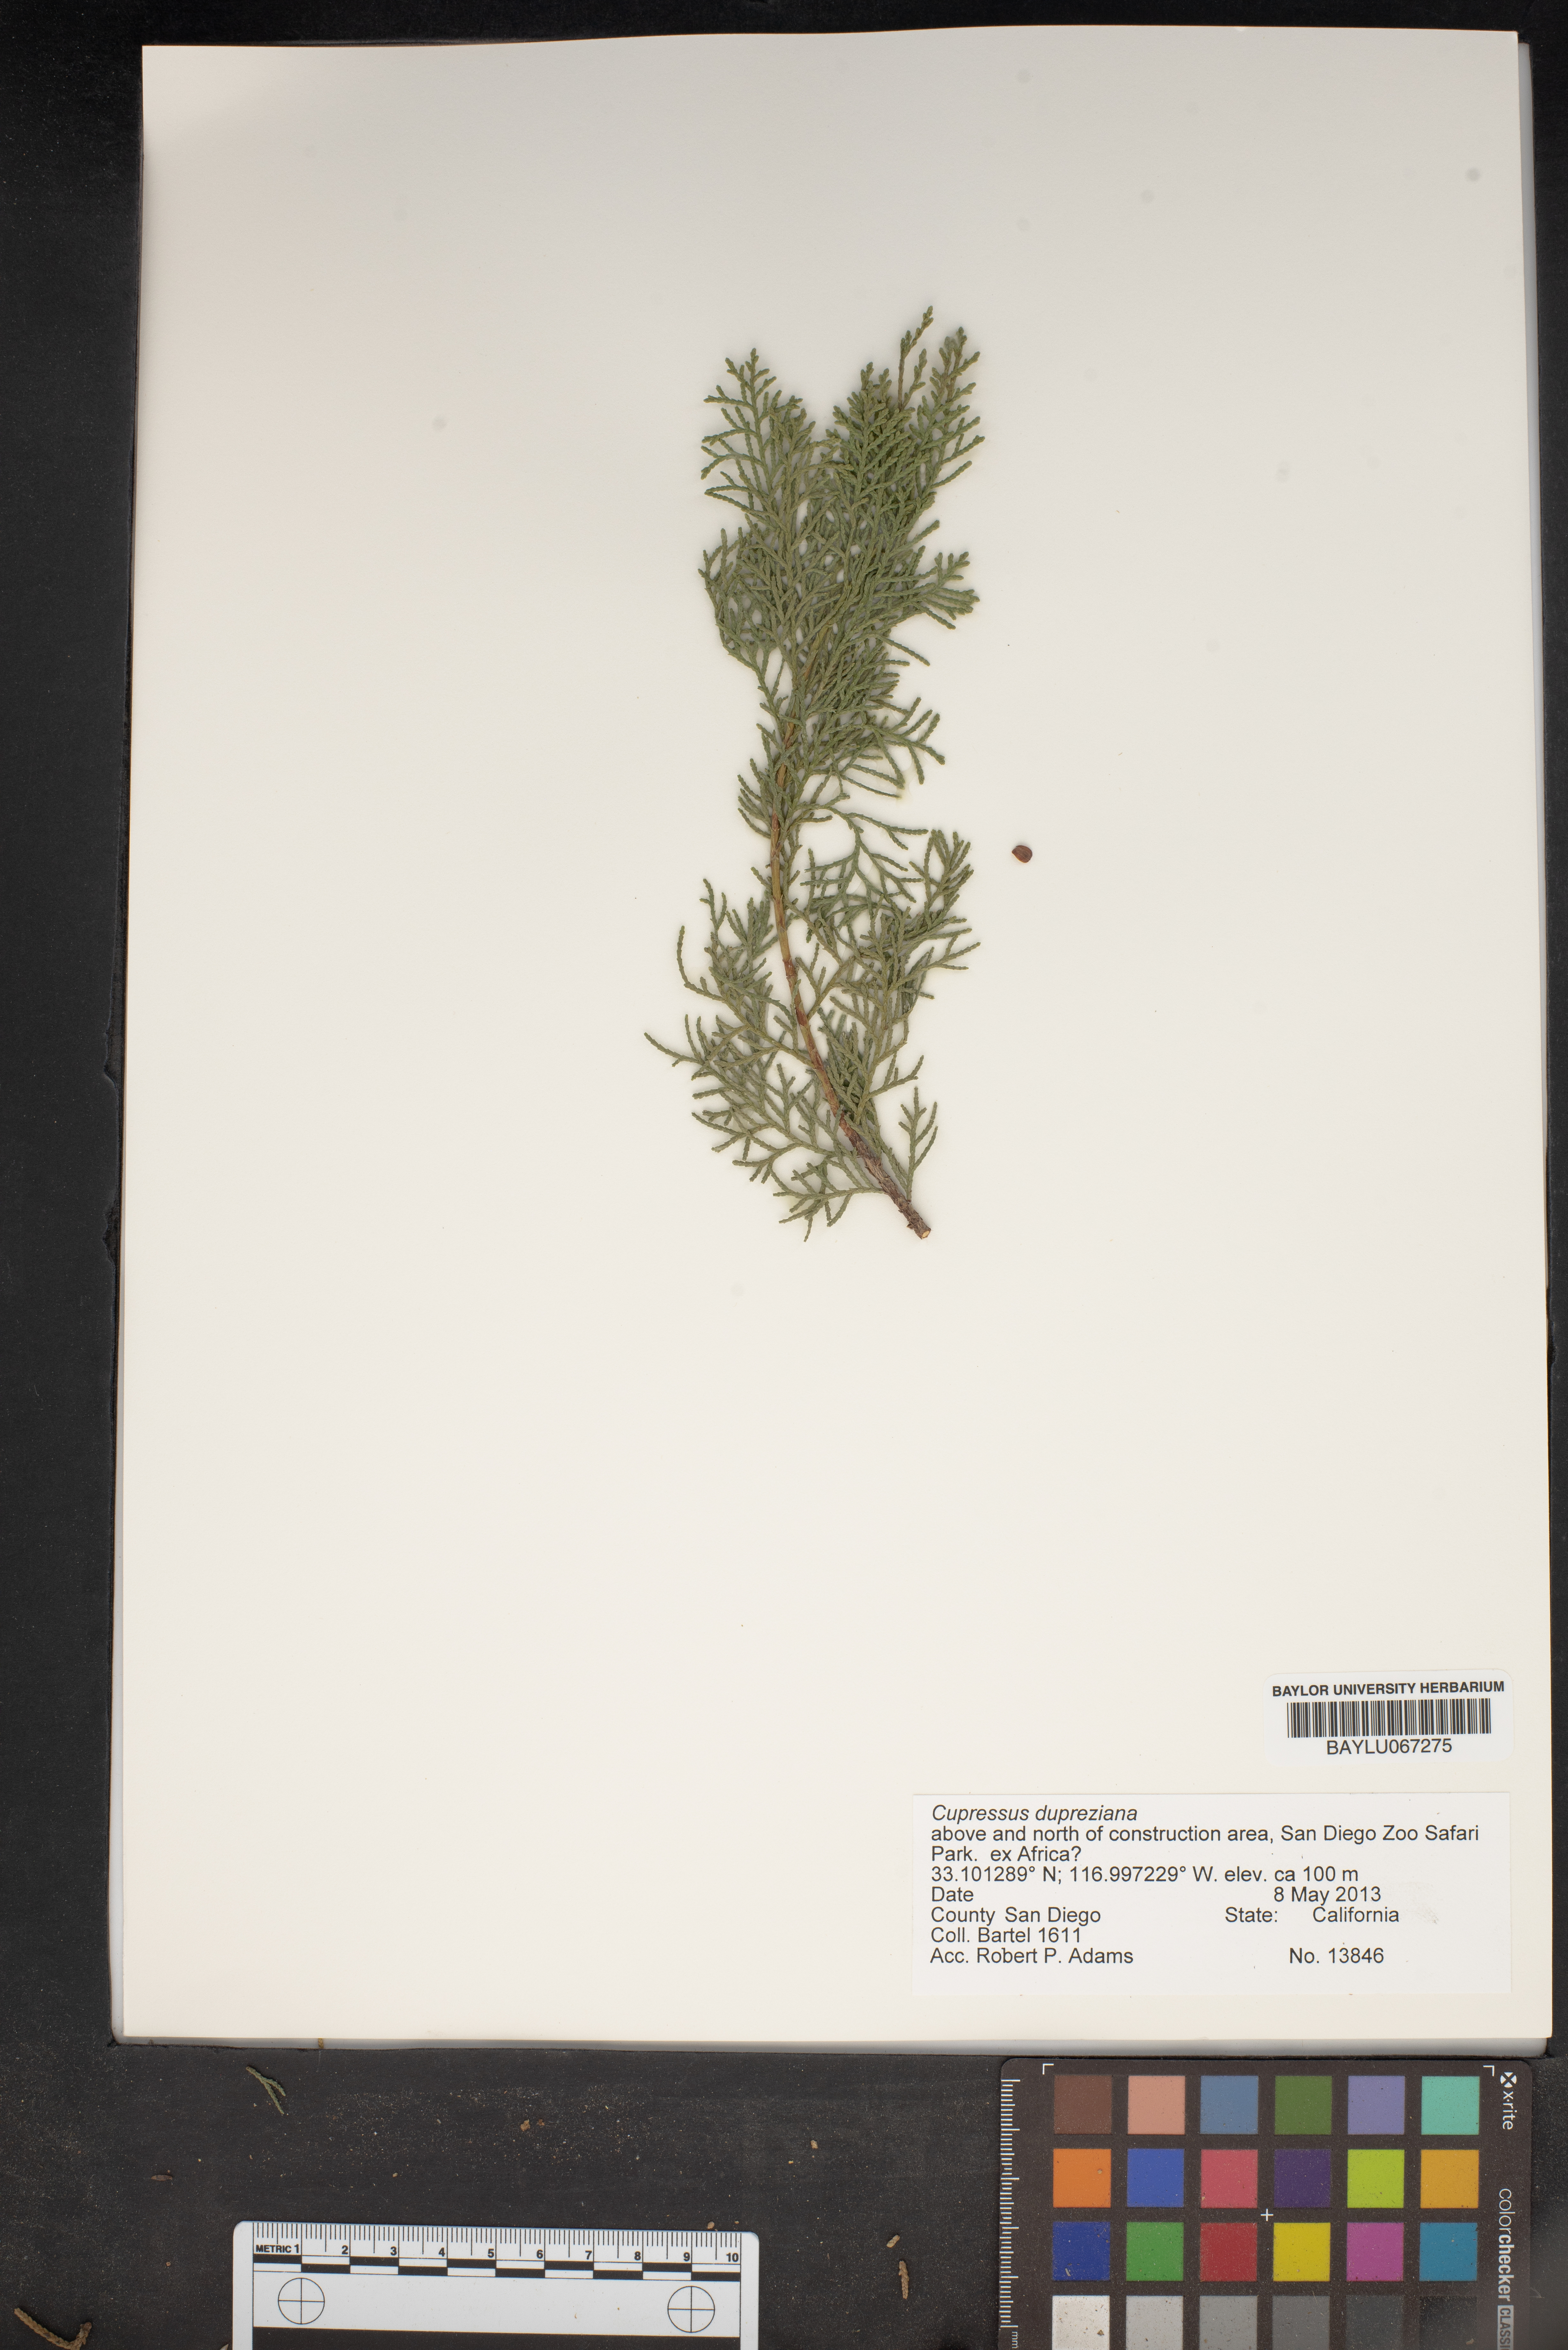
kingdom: Plantae
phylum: Tracheophyta
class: Pinopsida
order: Pinales
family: Cupressaceae
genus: Cupressus
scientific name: Cupressus dupreziana
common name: Moroccan cypress
